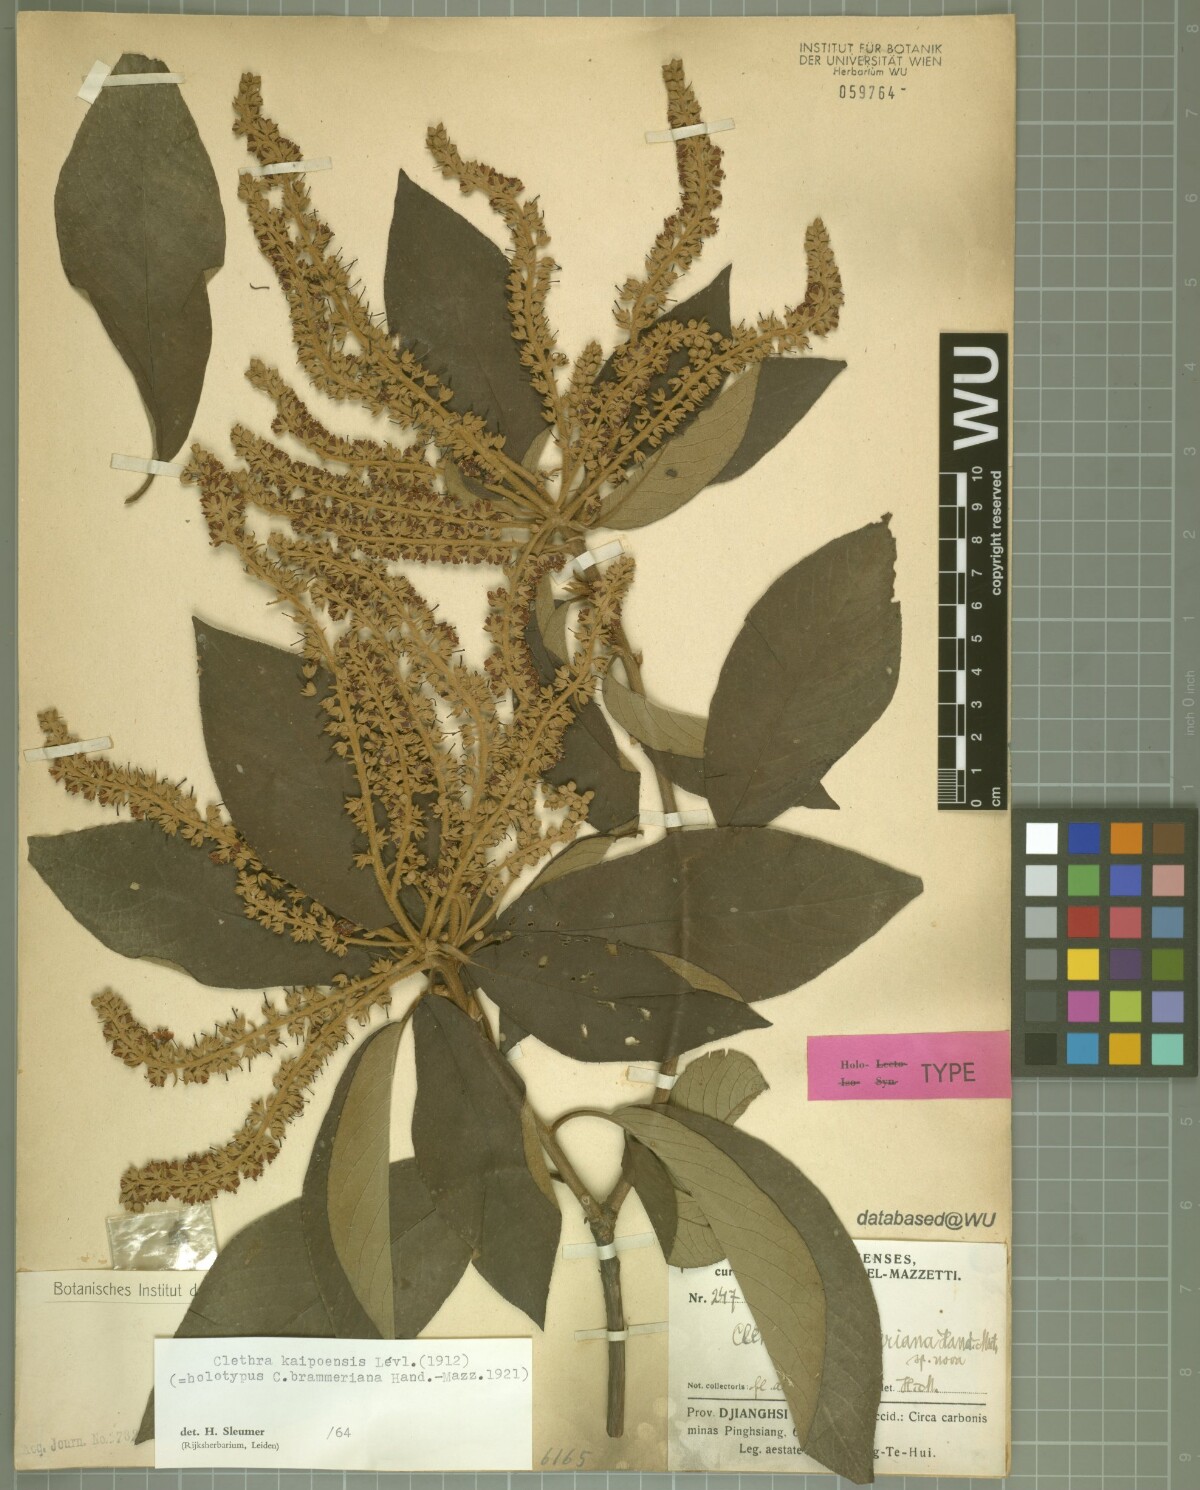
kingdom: Plantae
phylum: Tracheophyta
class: Magnoliopsida
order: Ericales
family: Clethraceae
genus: Clethra
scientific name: Clethra kaipoensis
